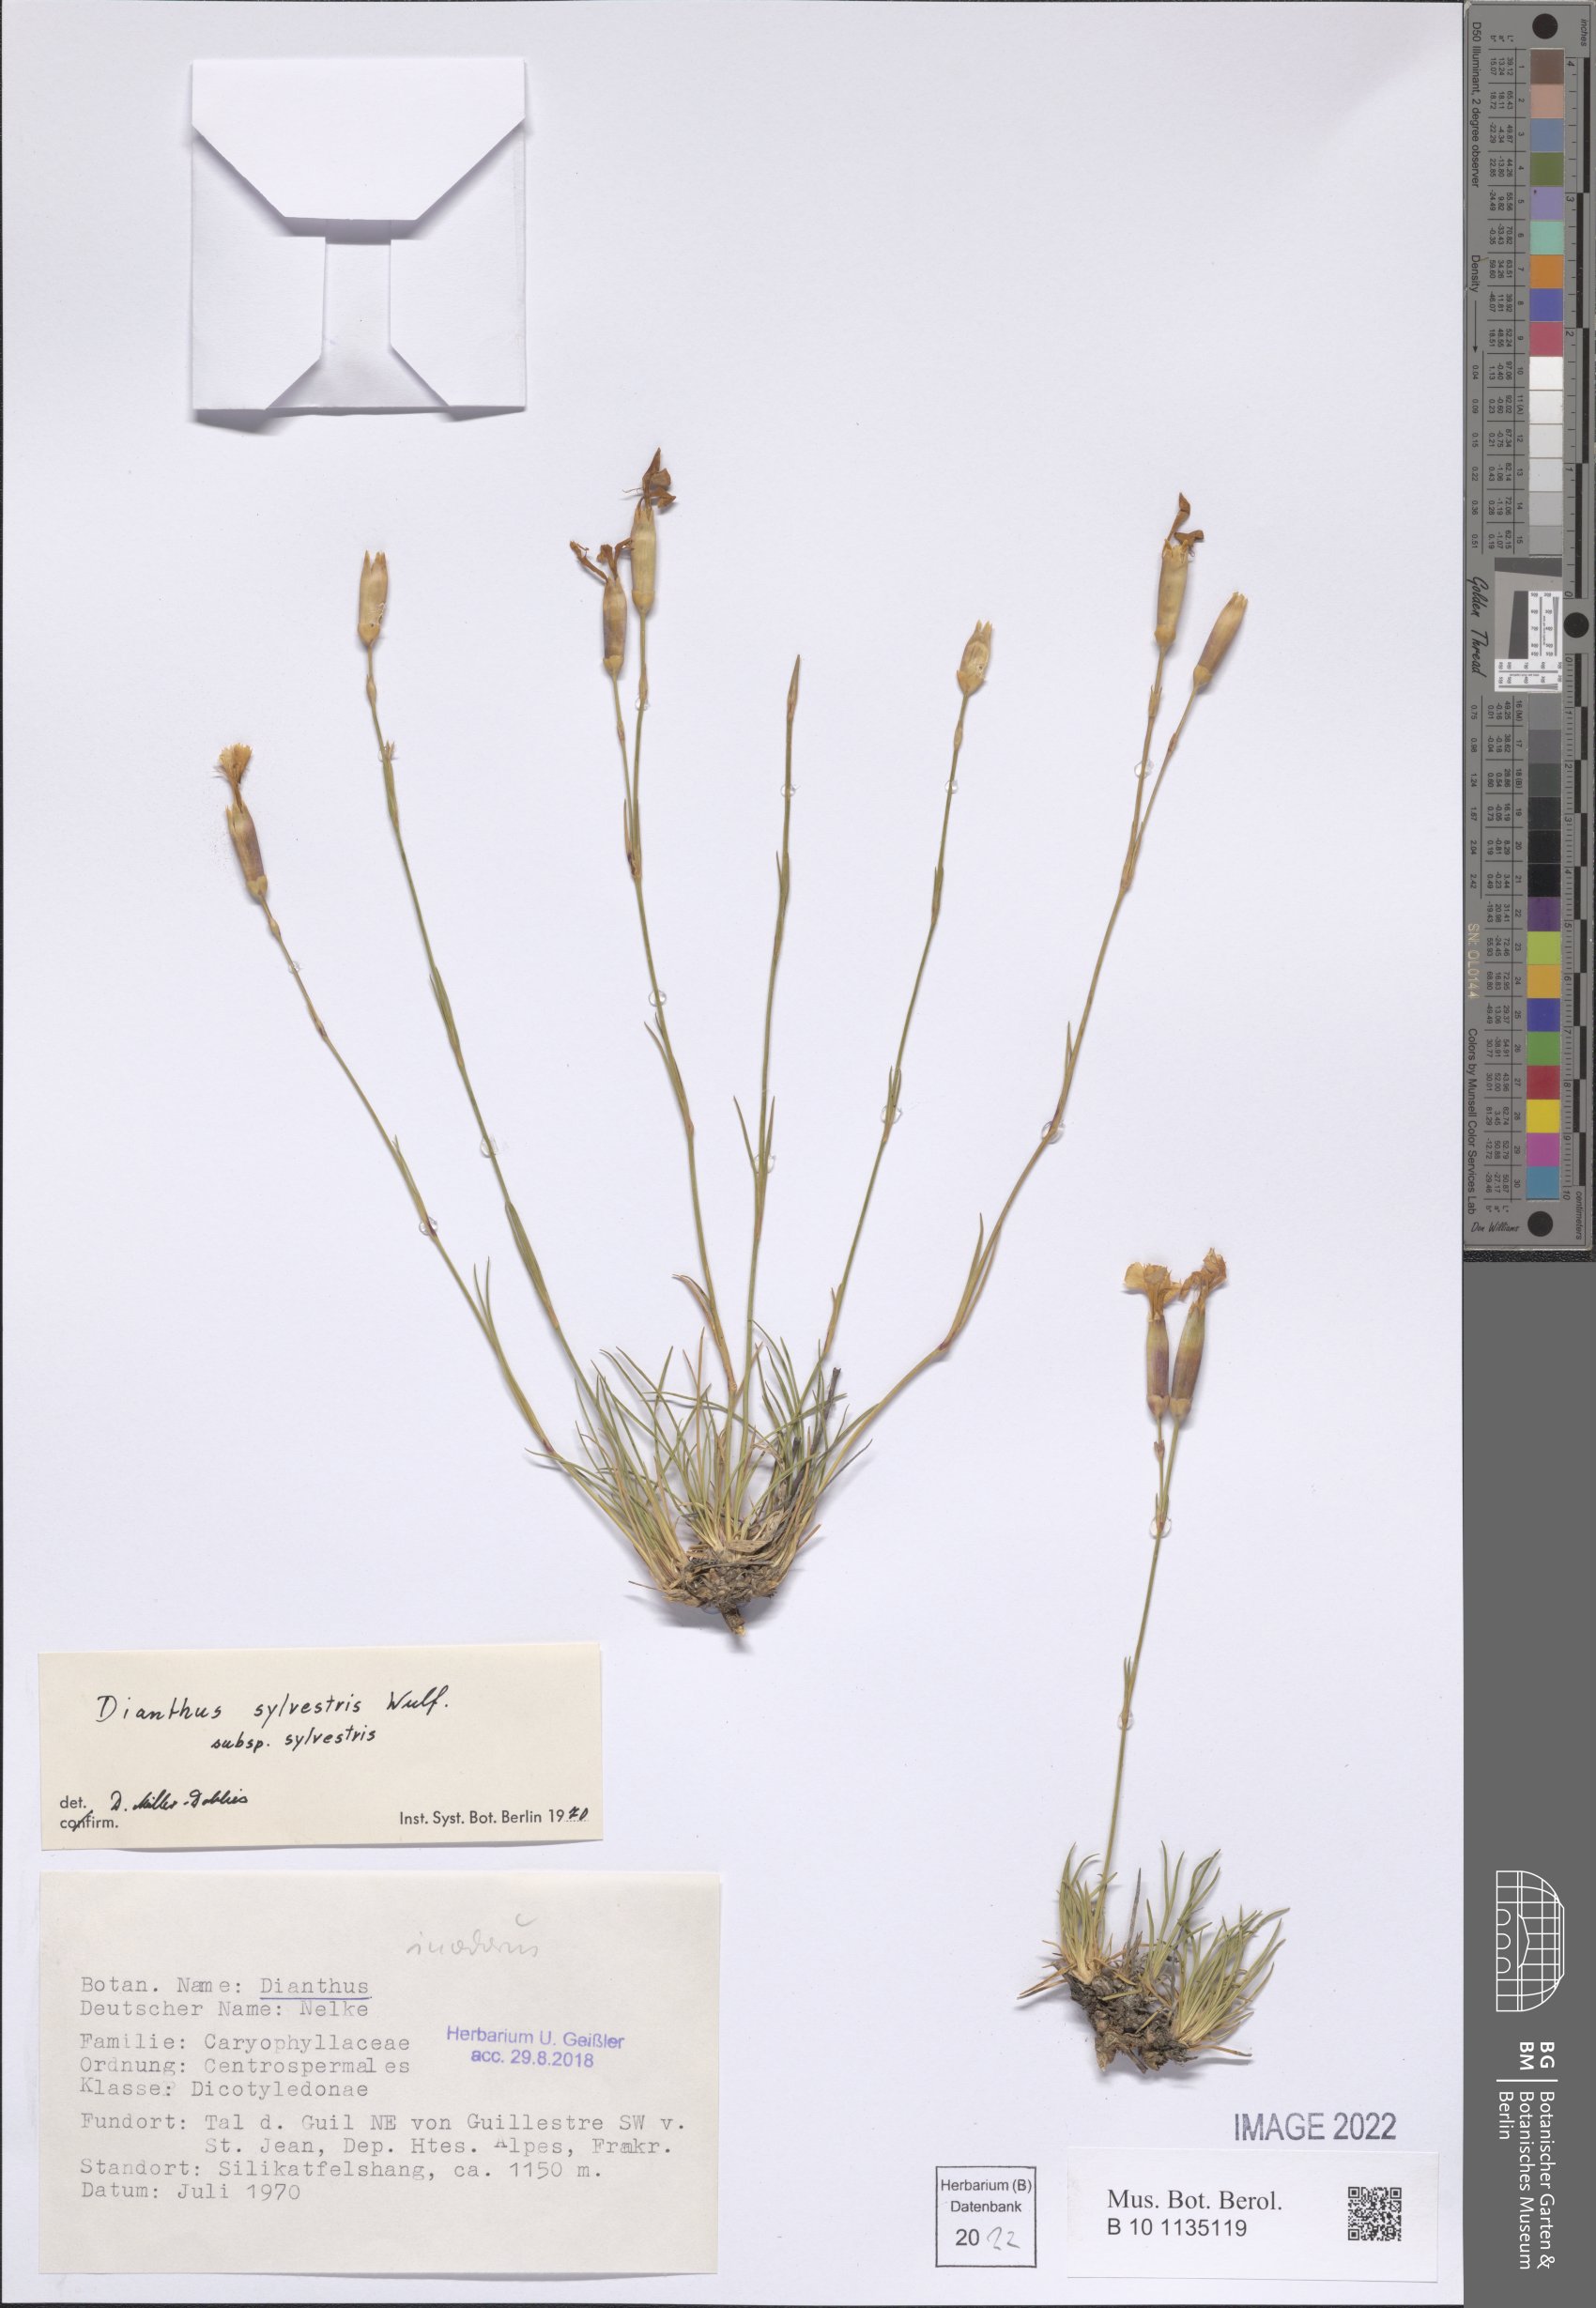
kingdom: Plantae
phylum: Tracheophyta
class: Magnoliopsida
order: Caryophyllales
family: Caryophyllaceae
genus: Dianthus
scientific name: Dianthus sylvestris
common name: Wood pink
